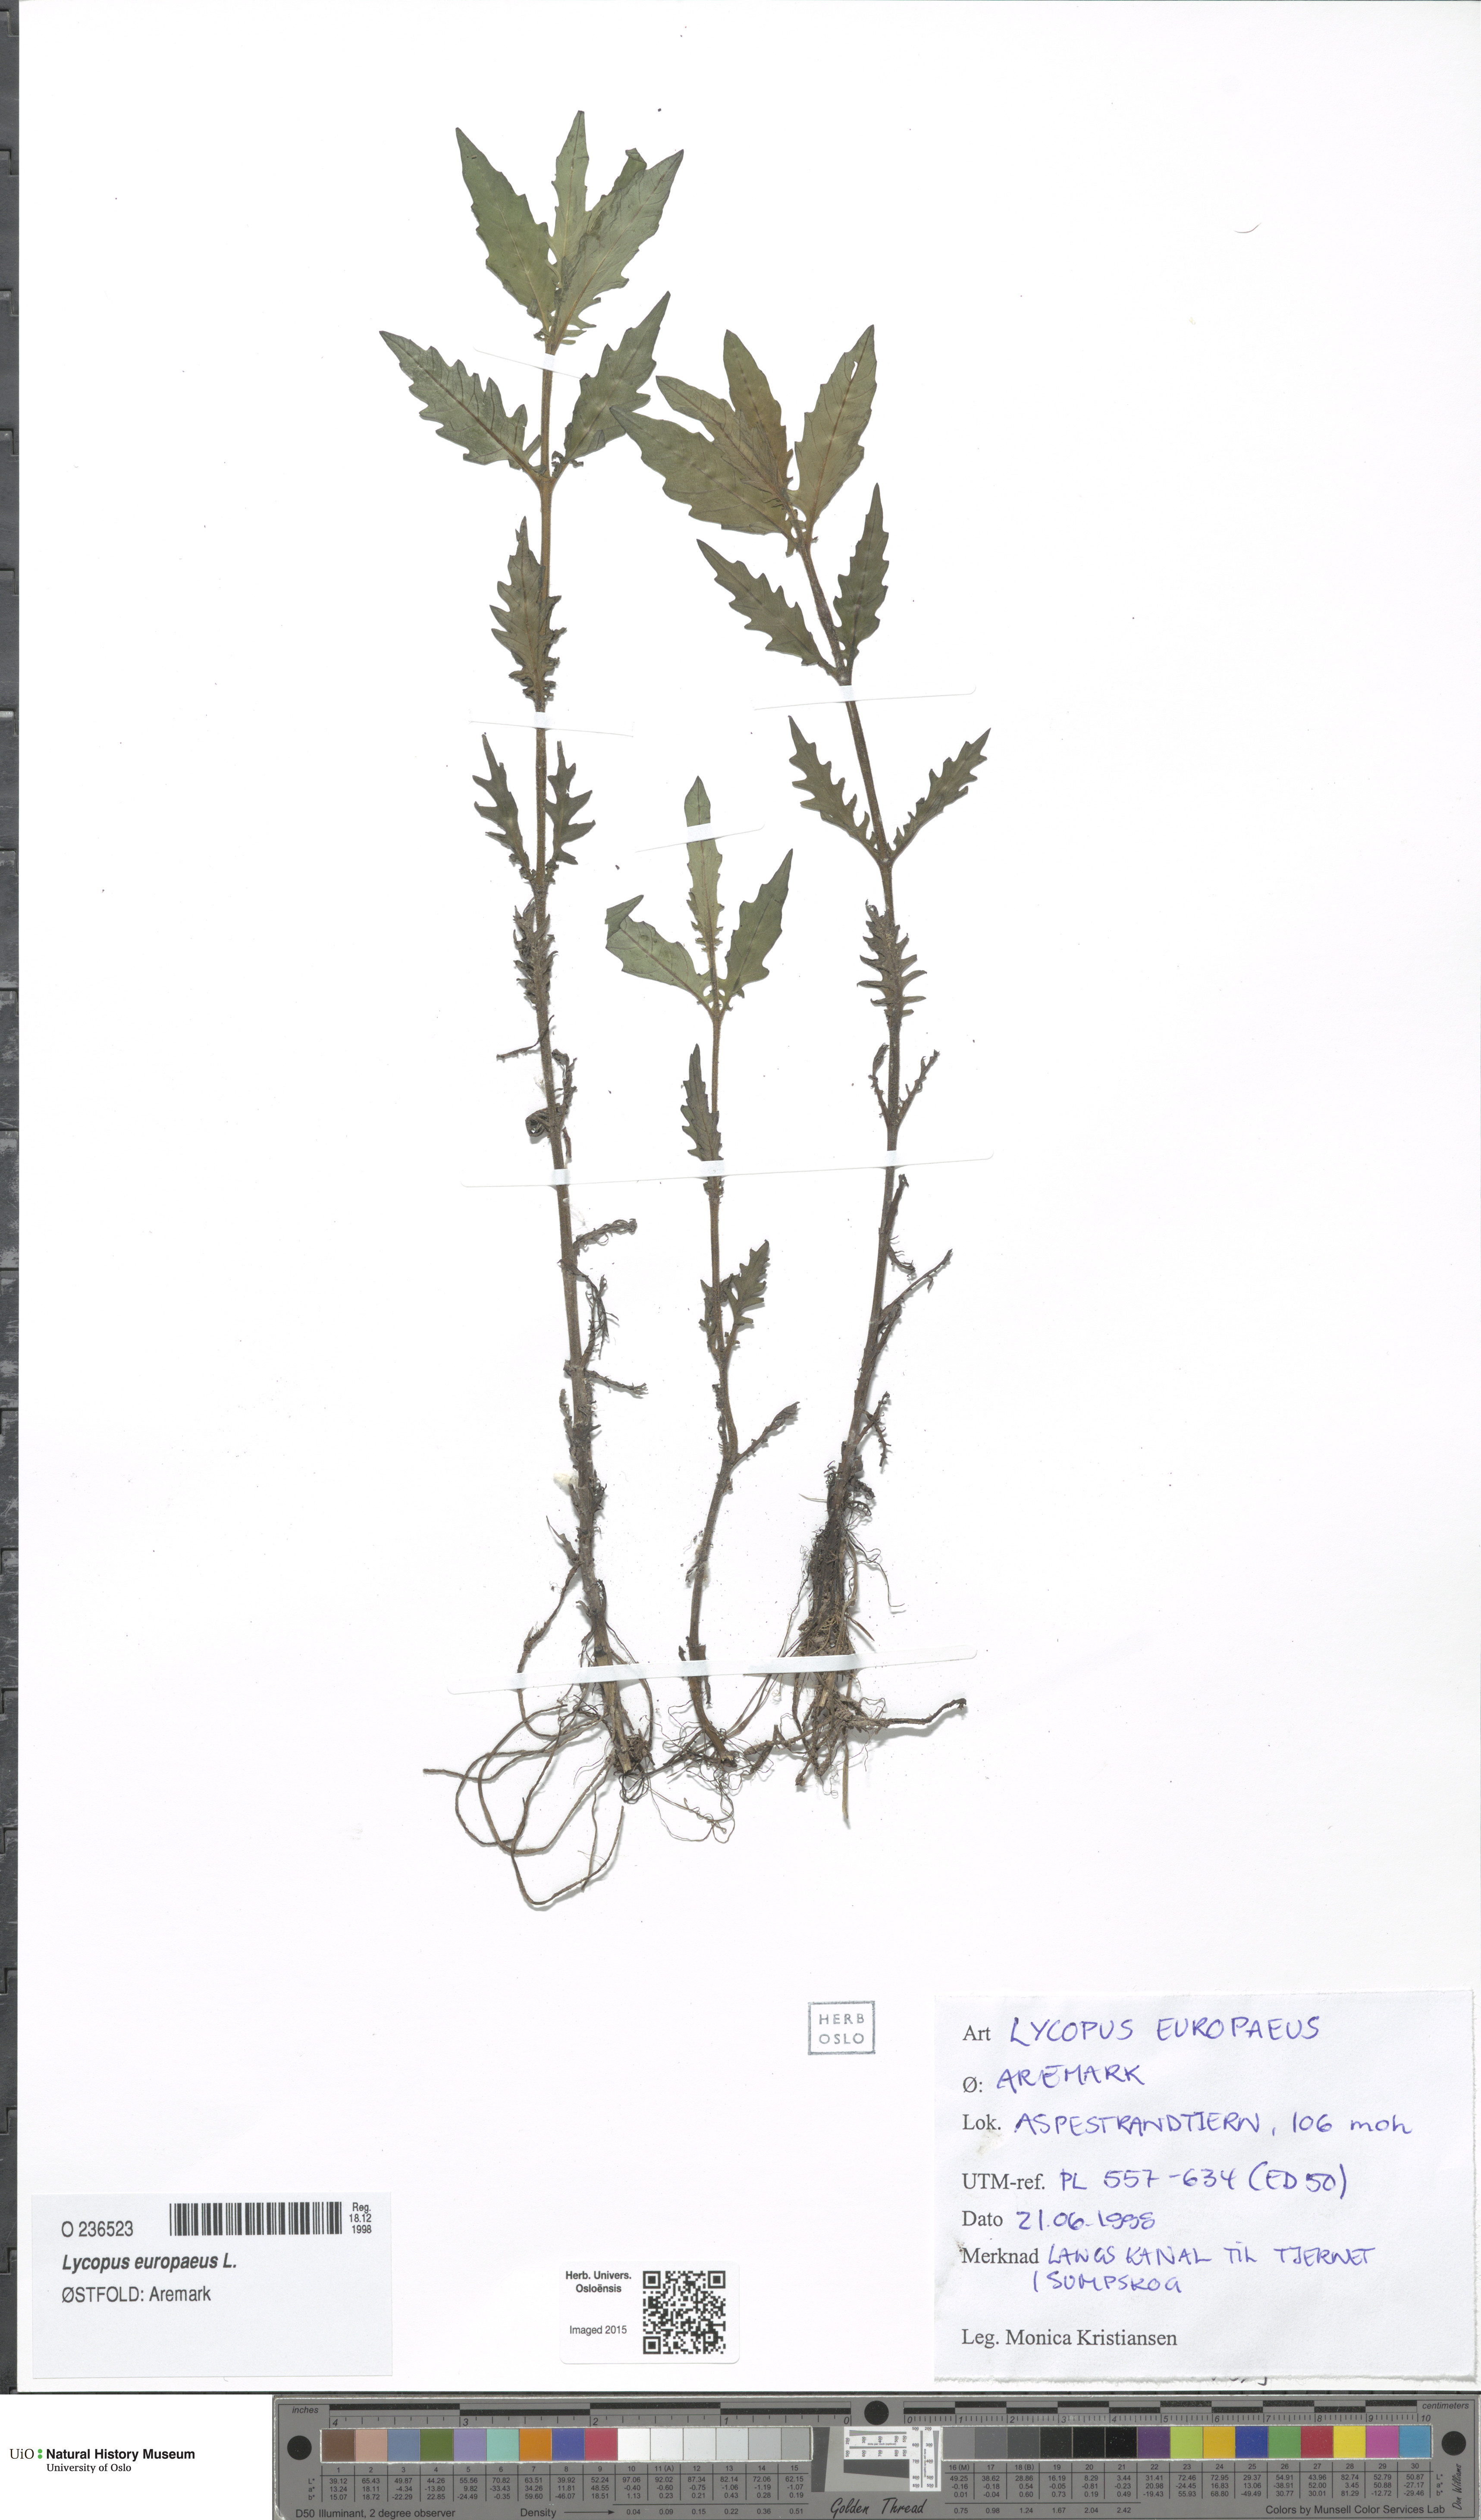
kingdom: Plantae
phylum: Tracheophyta
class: Magnoliopsida
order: Lamiales
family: Lamiaceae
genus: Lycopus
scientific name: Lycopus europaeus
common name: European bugleweed
